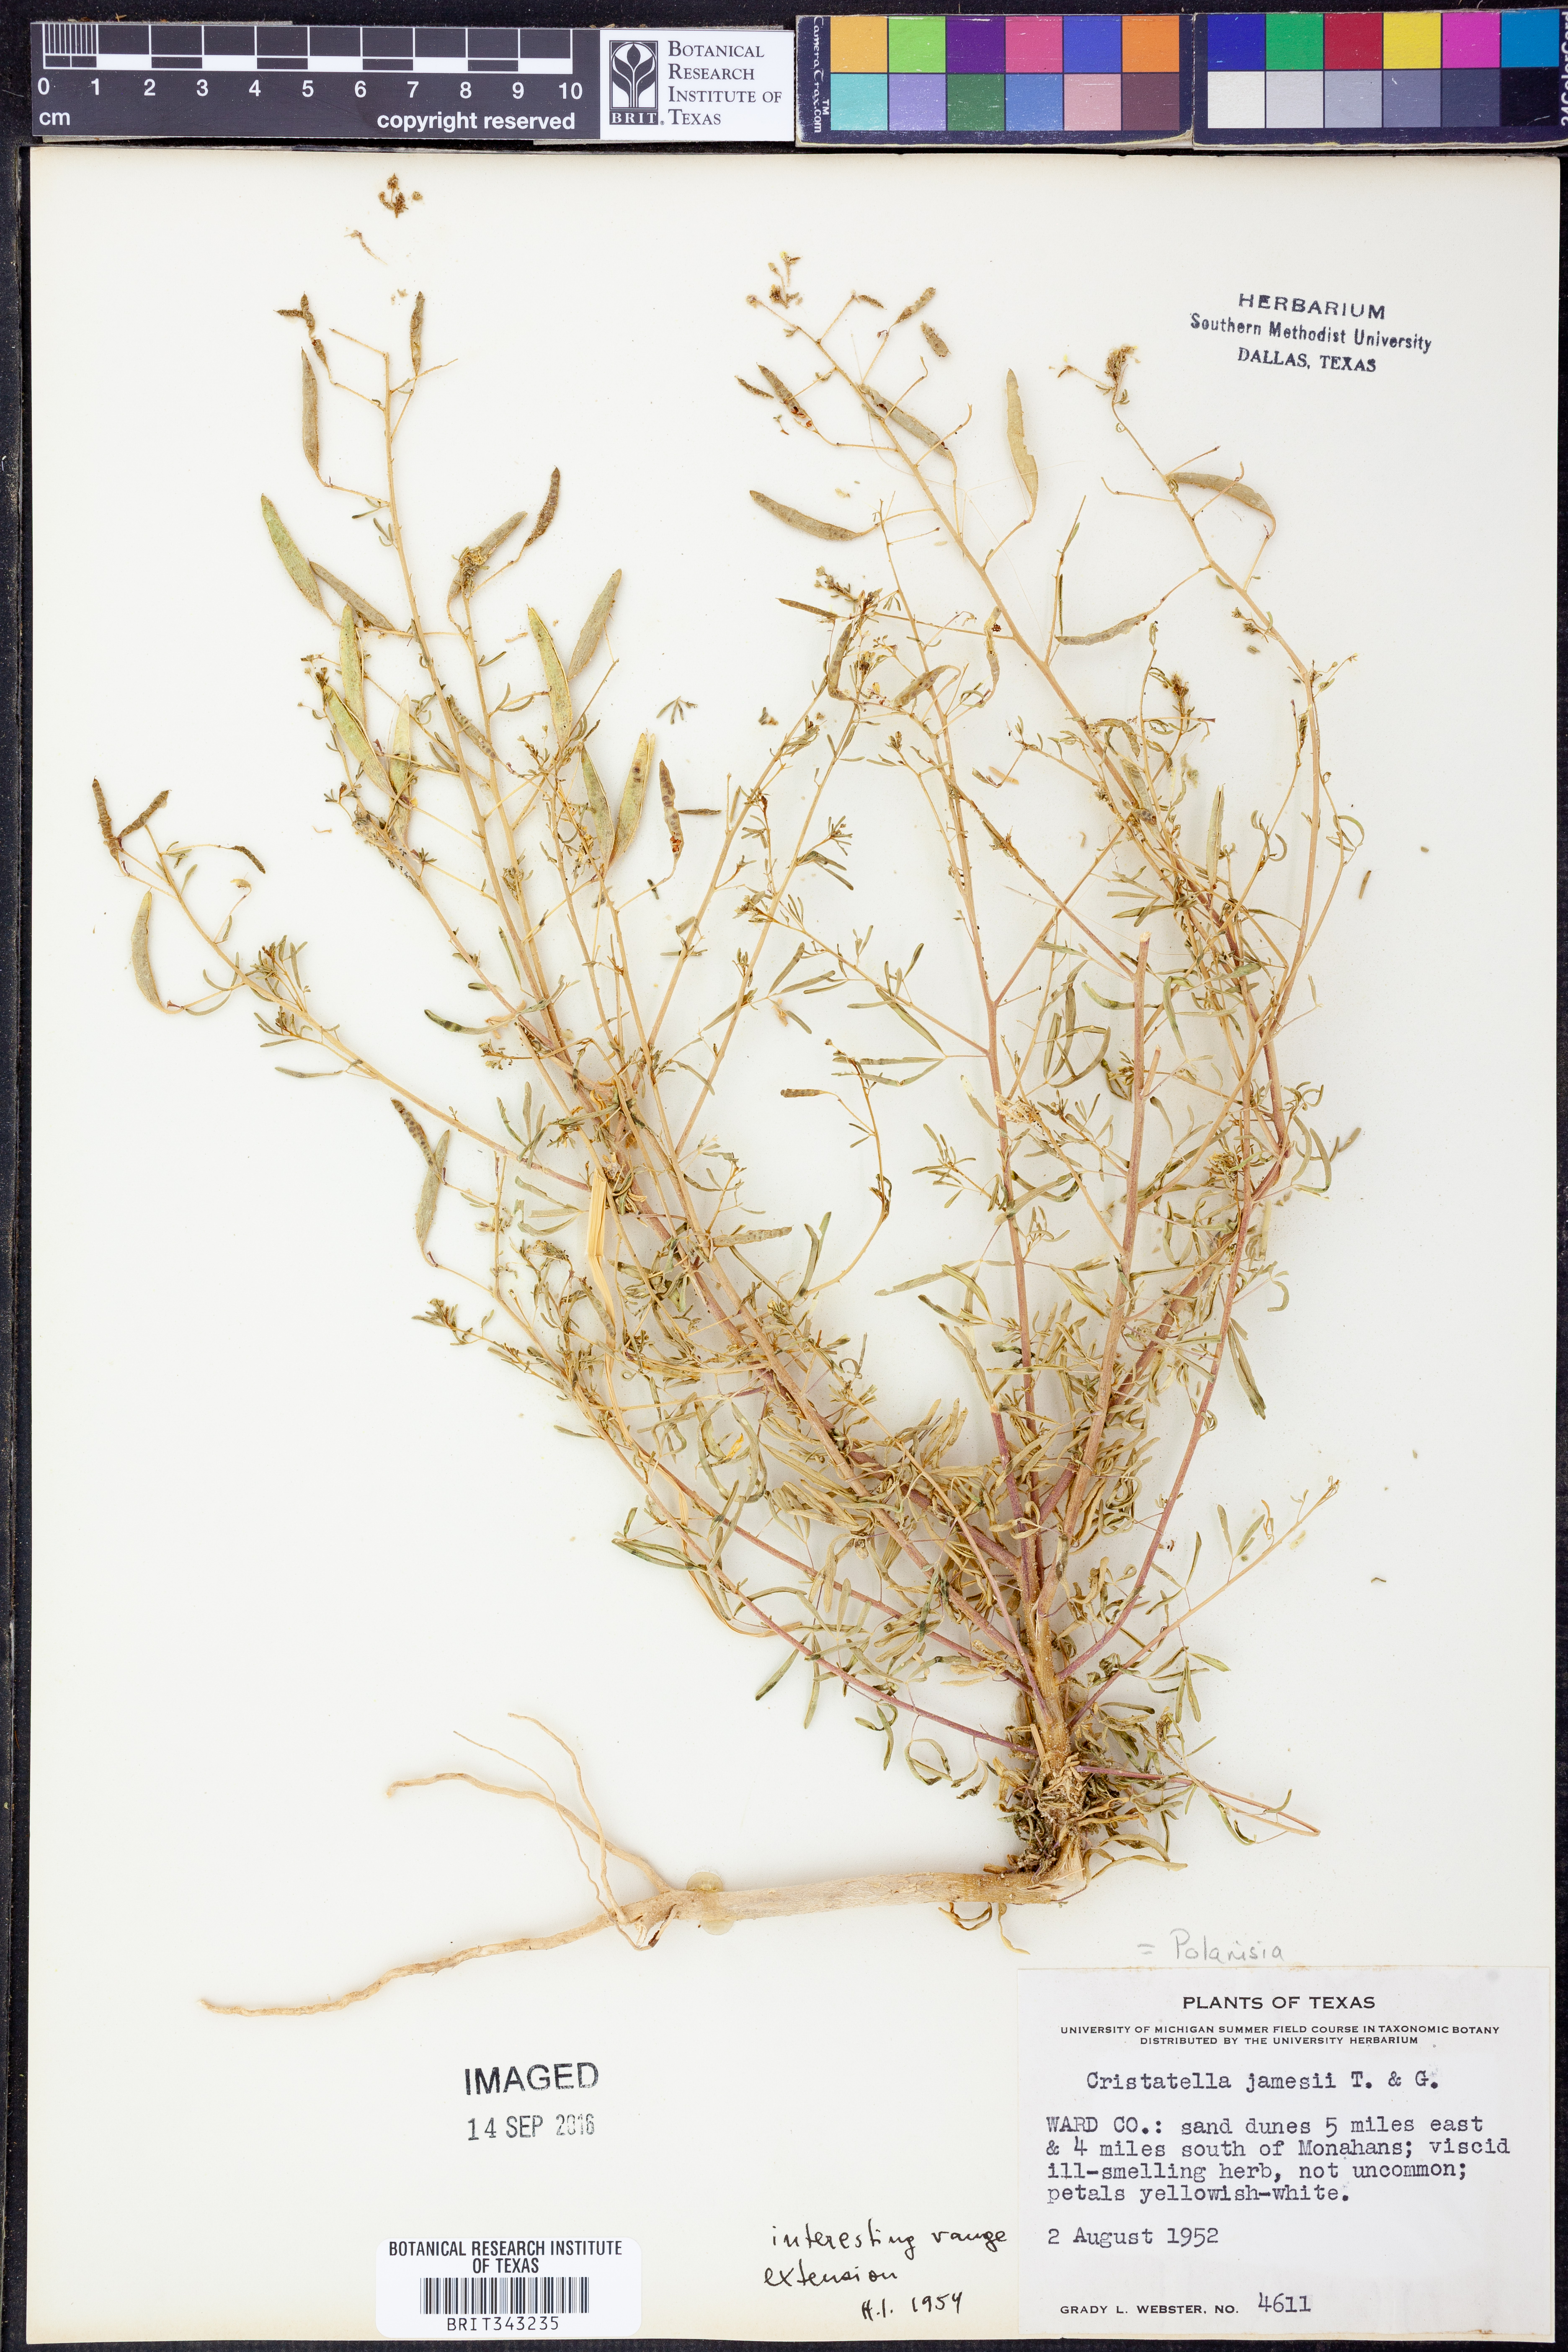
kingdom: Plantae
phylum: Tracheophyta
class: Magnoliopsida
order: Brassicales
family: Cleomaceae
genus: Polanisia
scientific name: Polanisia jamesii
